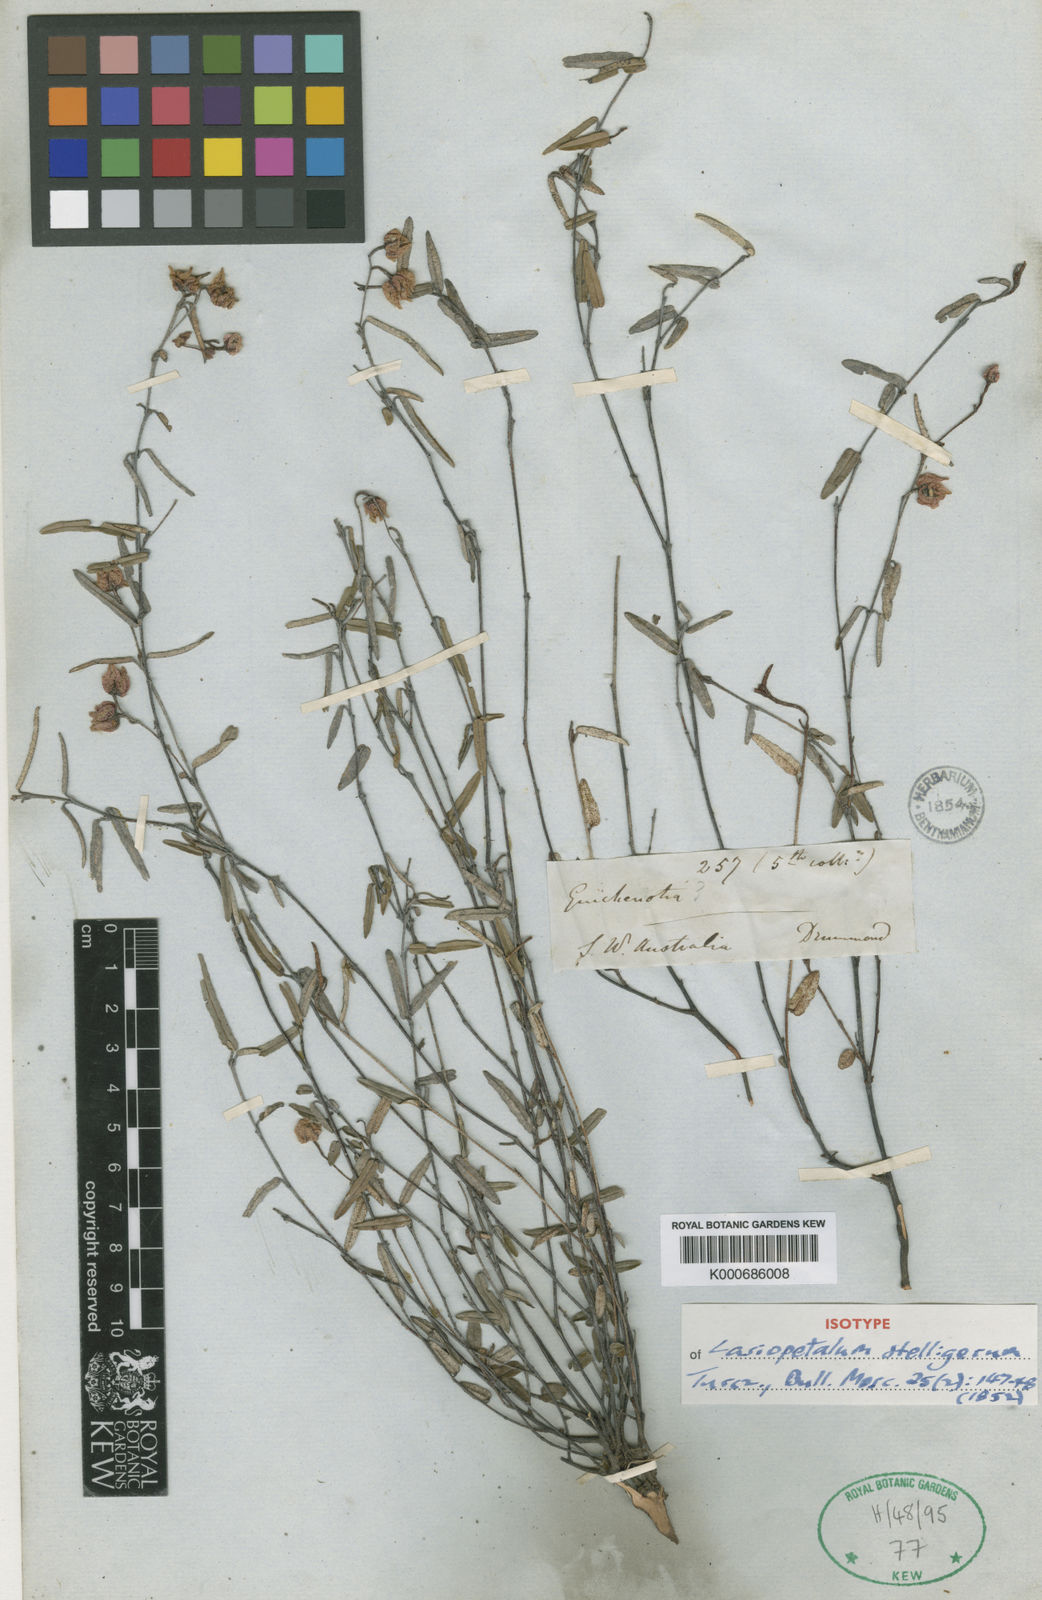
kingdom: Plantae
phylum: Tracheophyta
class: Magnoliopsida
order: Malvales
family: Malvaceae
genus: Thomasia
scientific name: Thomasia stelligera
